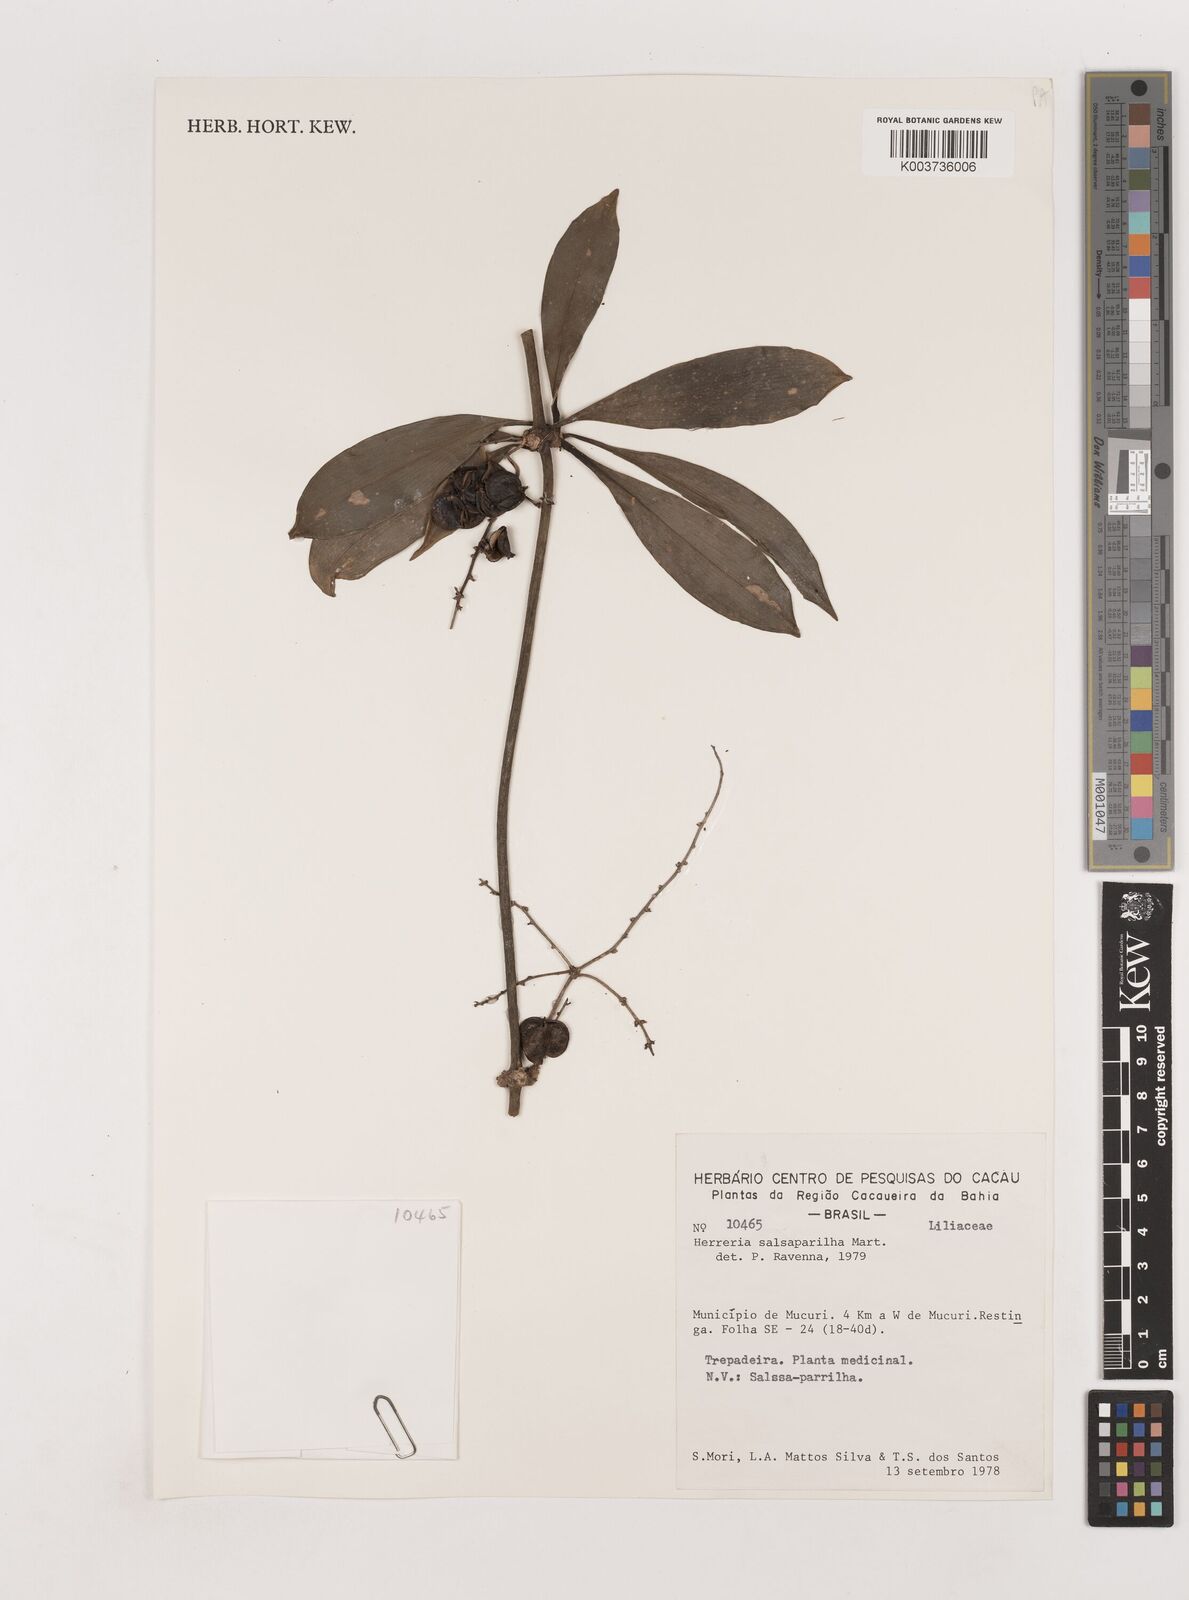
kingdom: Plantae
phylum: Tracheophyta
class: Liliopsida
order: Asparagales
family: Asparagaceae
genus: Herreria
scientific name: Herreria salsaparilha
